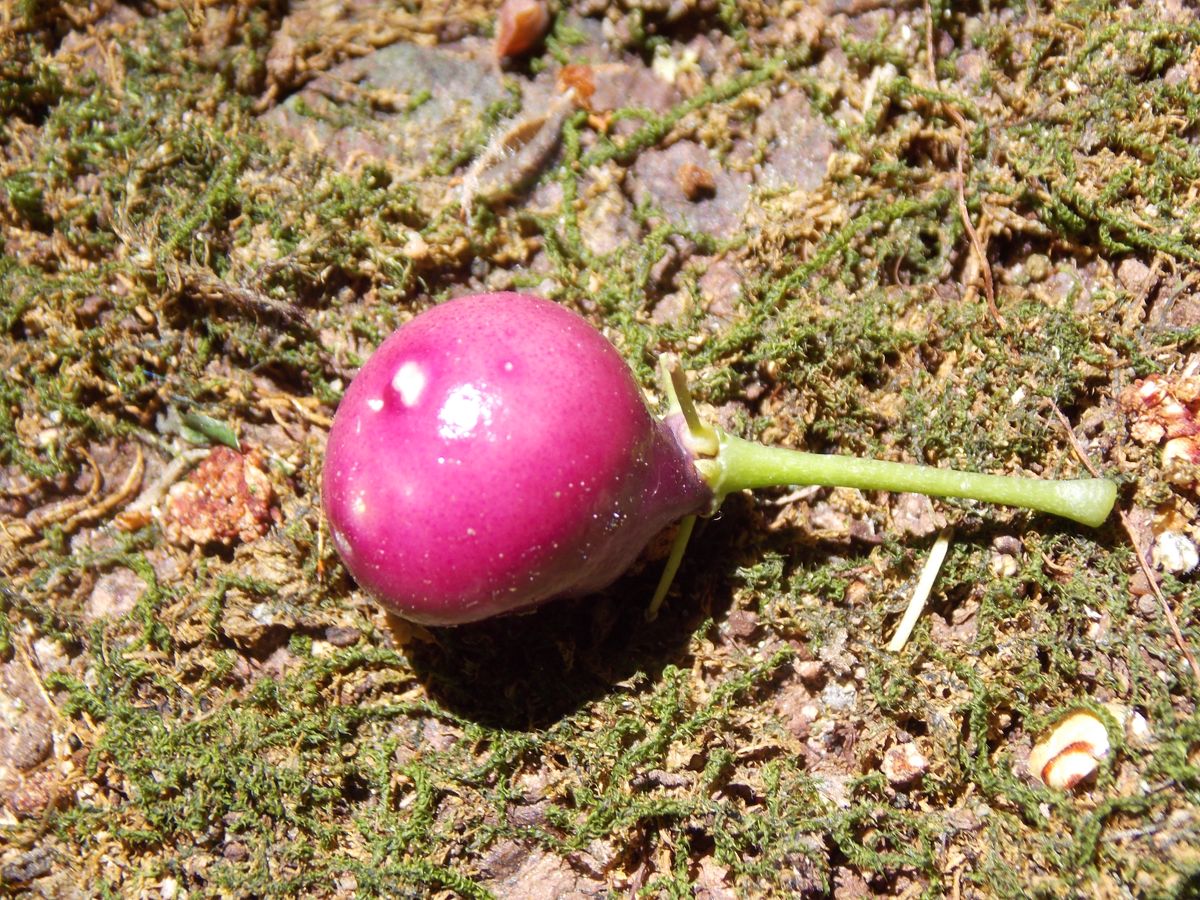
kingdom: Plantae
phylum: Tracheophyta
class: Magnoliopsida
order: Brassicales
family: Stixaceae
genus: Forchhammeria
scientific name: Forchhammeria trifoliata
